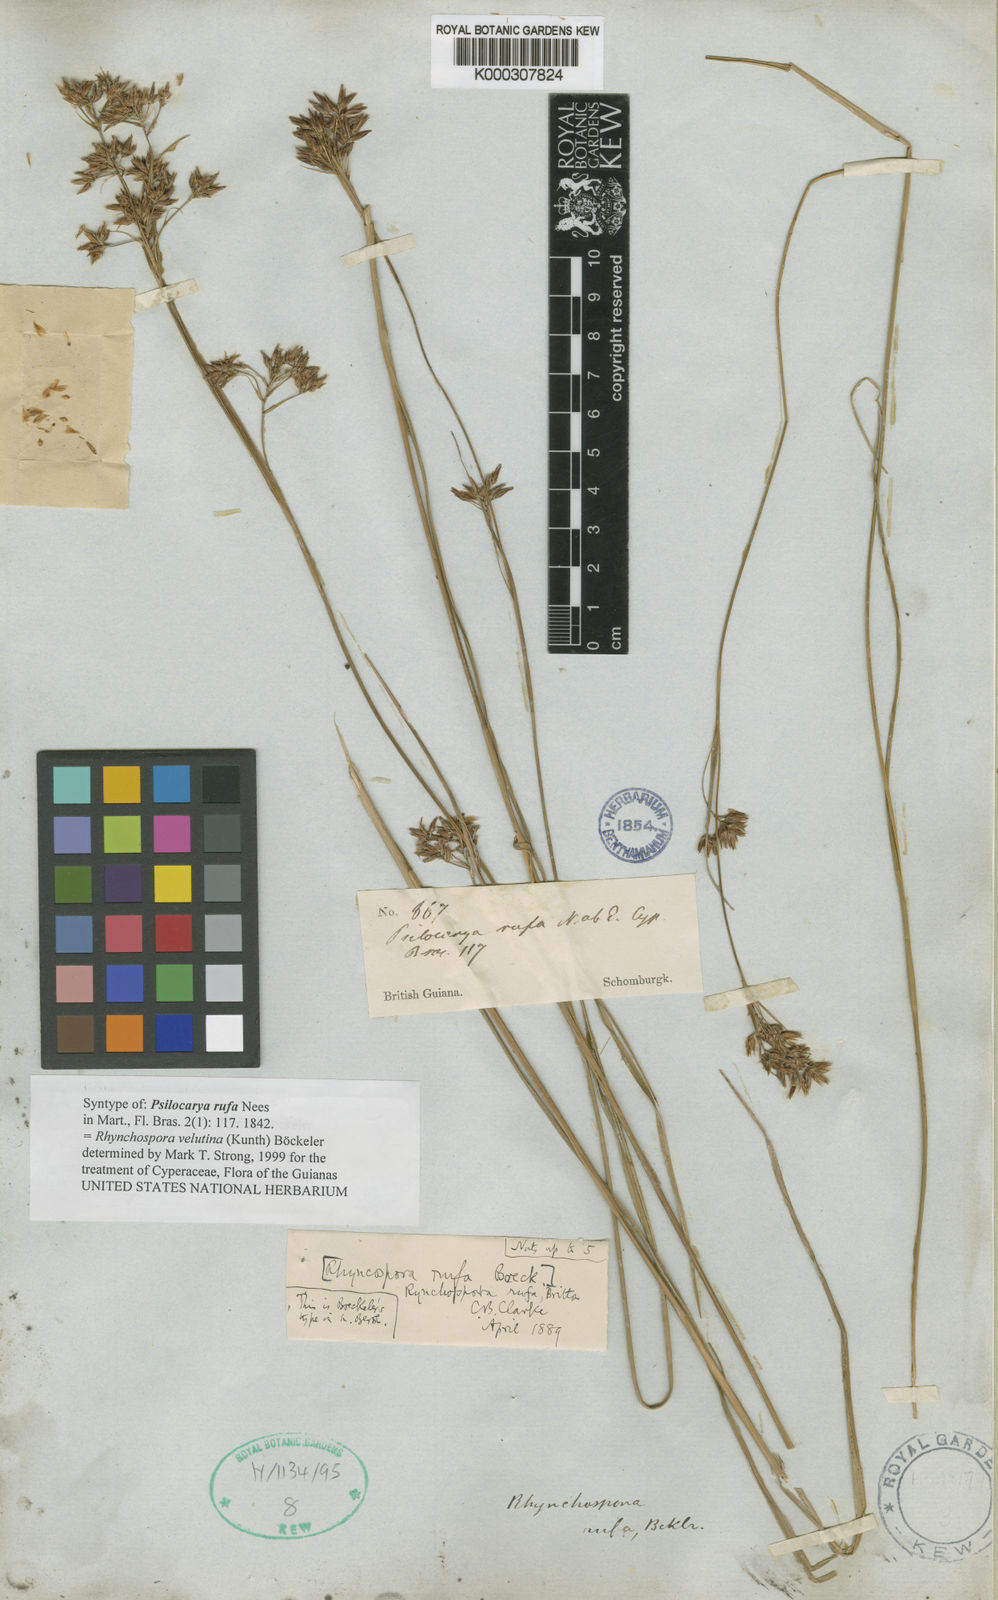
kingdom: Plantae
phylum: Tracheophyta
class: Liliopsida
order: Poales
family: Cyperaceae
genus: Rhynchospora
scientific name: Rhynchospora velutina
